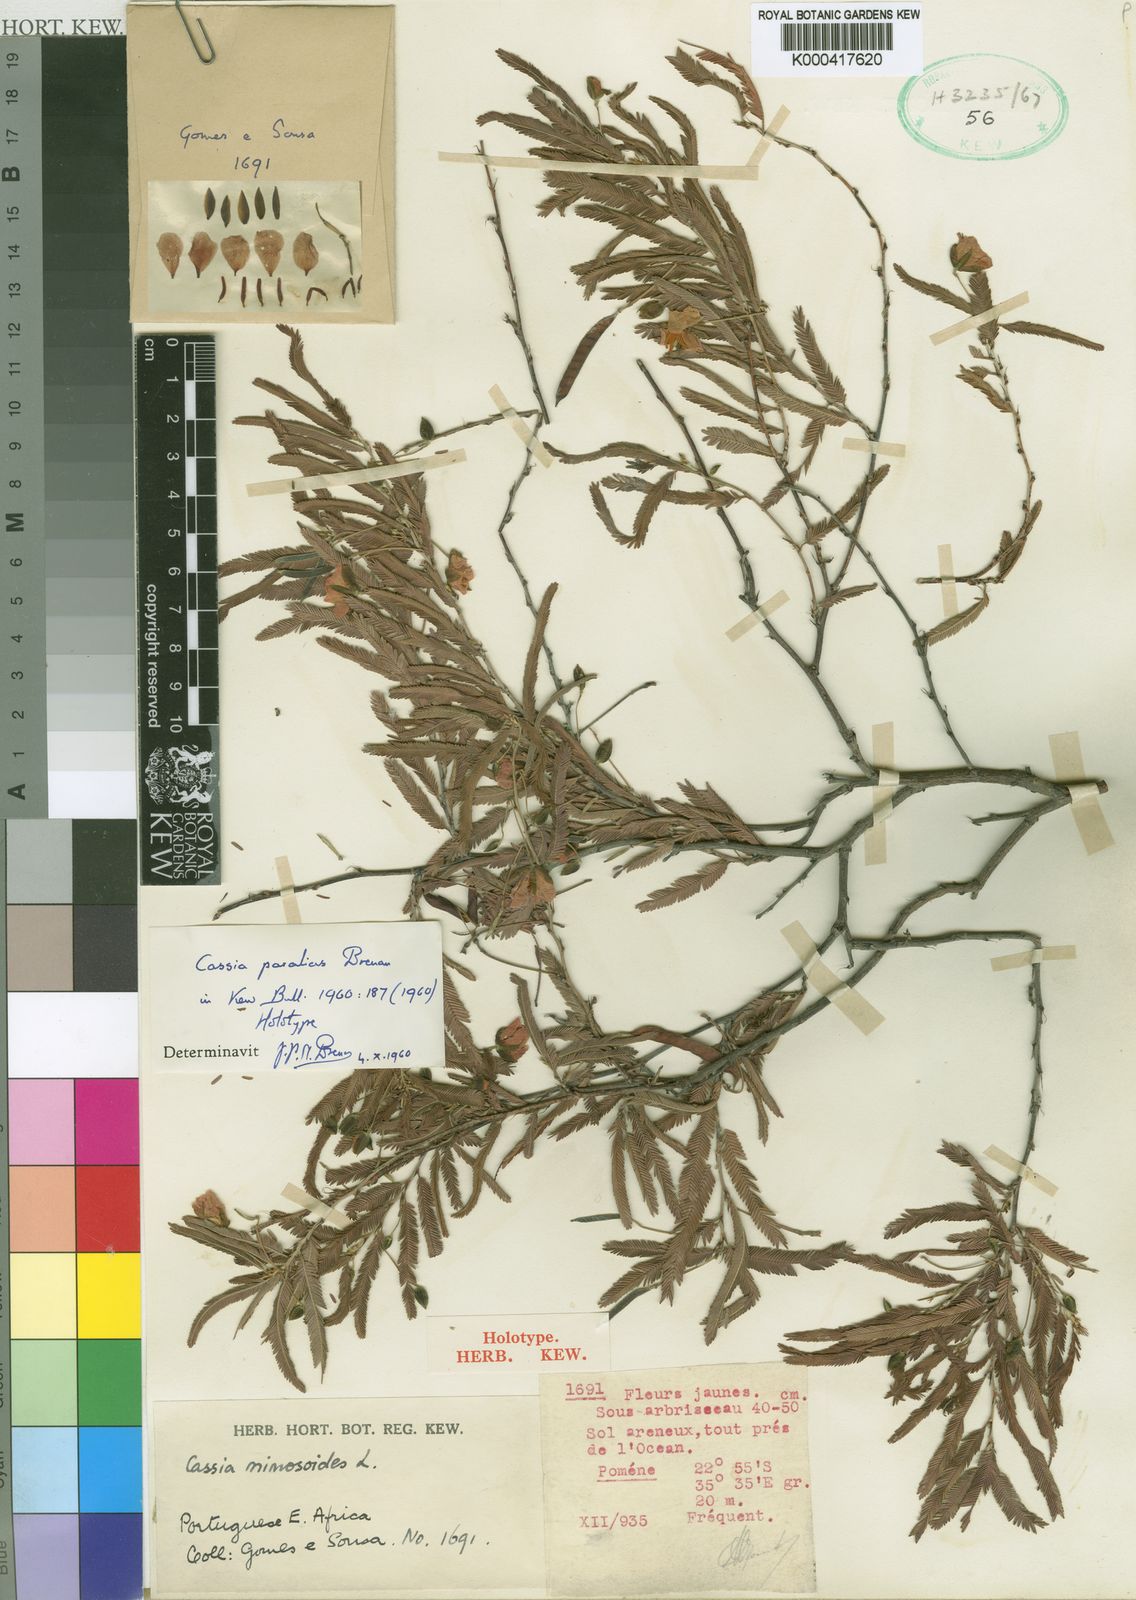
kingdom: Plantae
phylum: Tracheophyta
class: Magnoliopsida
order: Fabales
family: Fabaceae
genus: Chamaecrista
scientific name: Chamaecrista paralias
